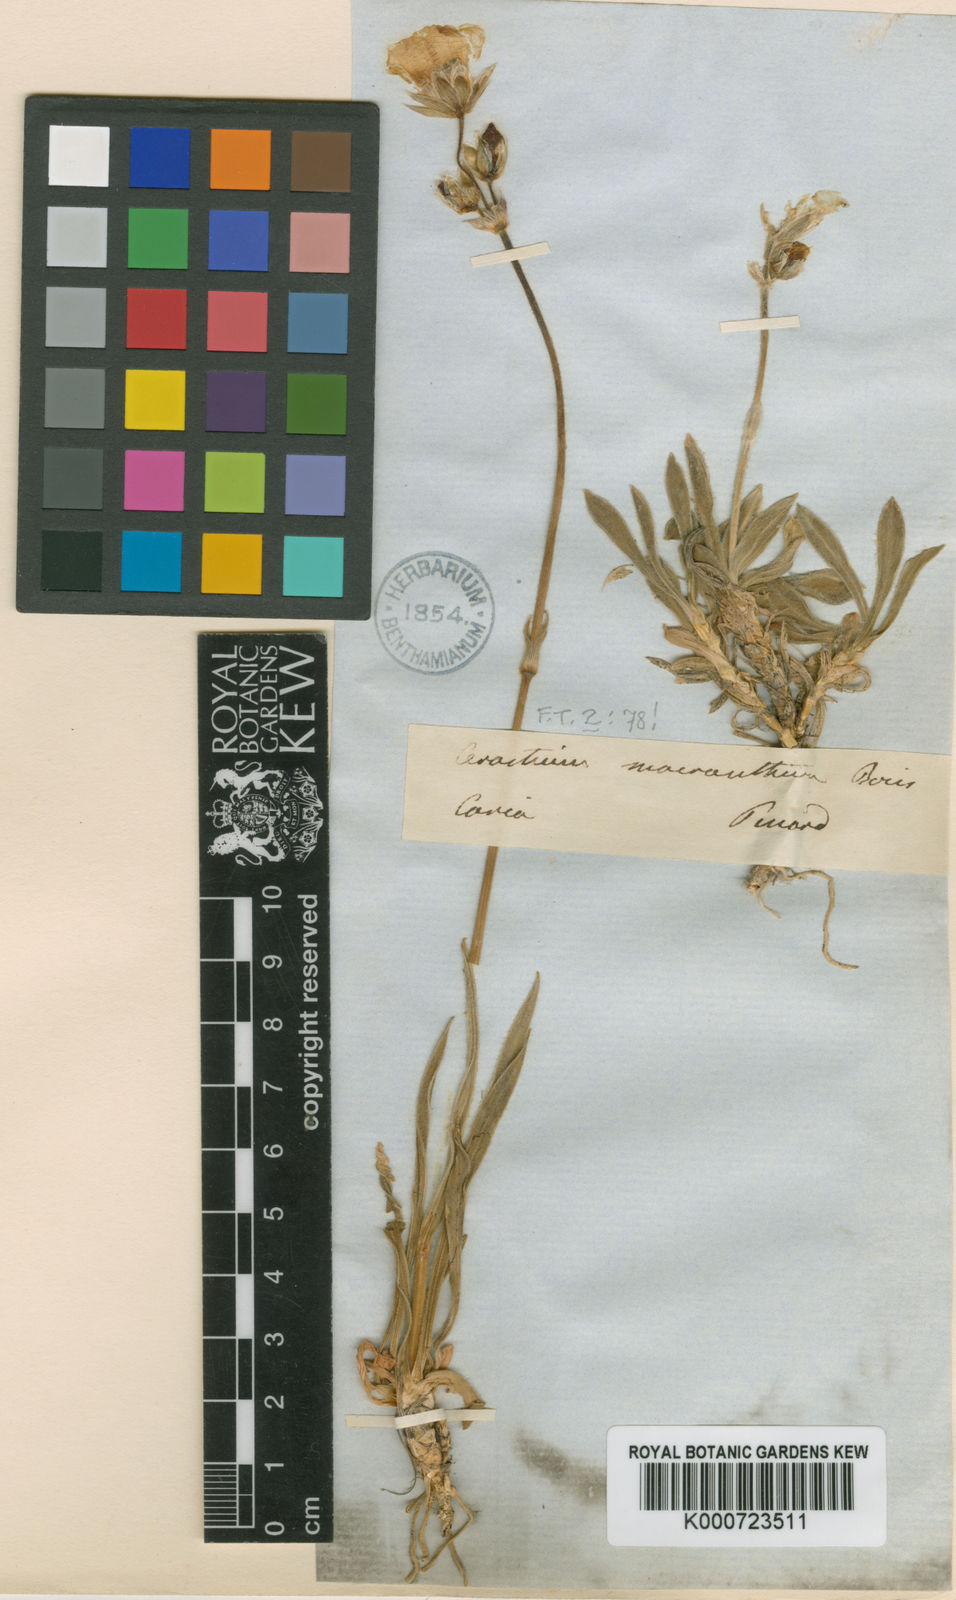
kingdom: Plantae
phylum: Tracheophyta
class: Magnoliopsida
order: Caryophyllales
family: Caryophyllaceae
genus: Cerastium
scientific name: Cerastium macranthum
